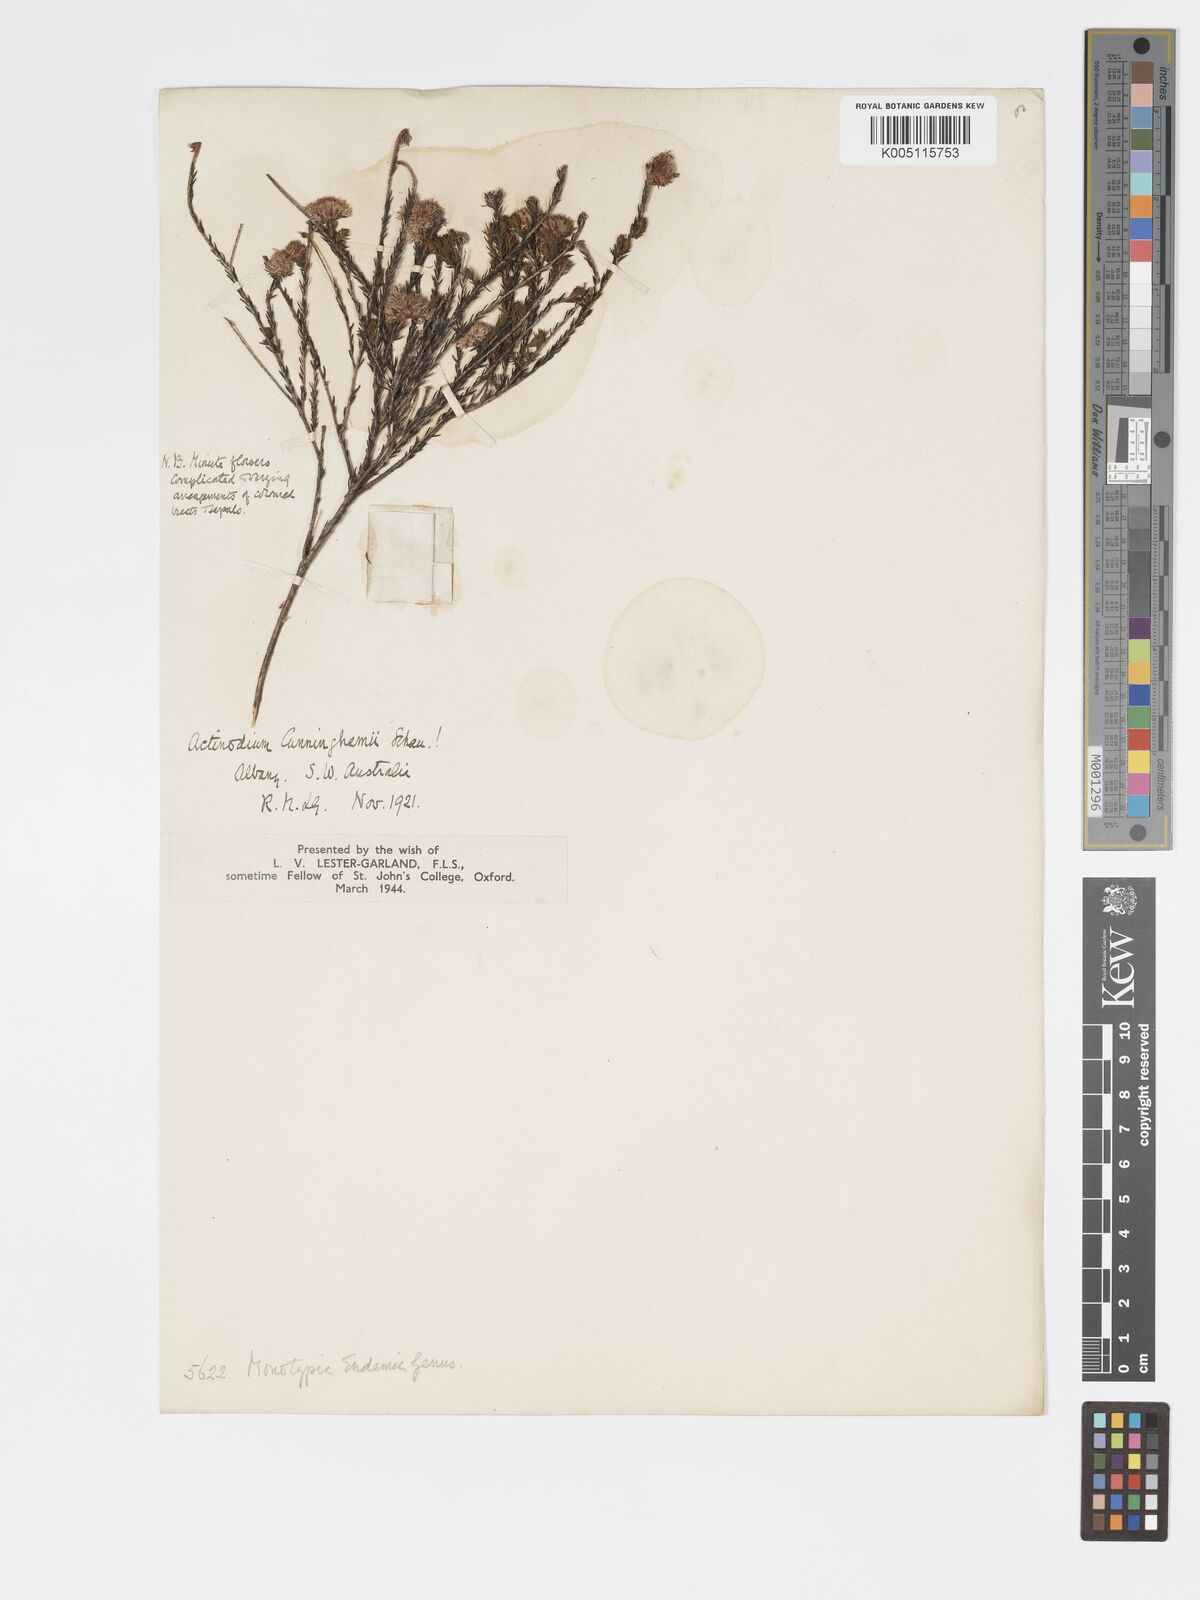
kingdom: Plantae
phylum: Tracheophyta
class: Magnoliopsida
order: Myrtales
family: Myrtaceae
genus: Actinodium
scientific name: Actinodium cunninghamii
